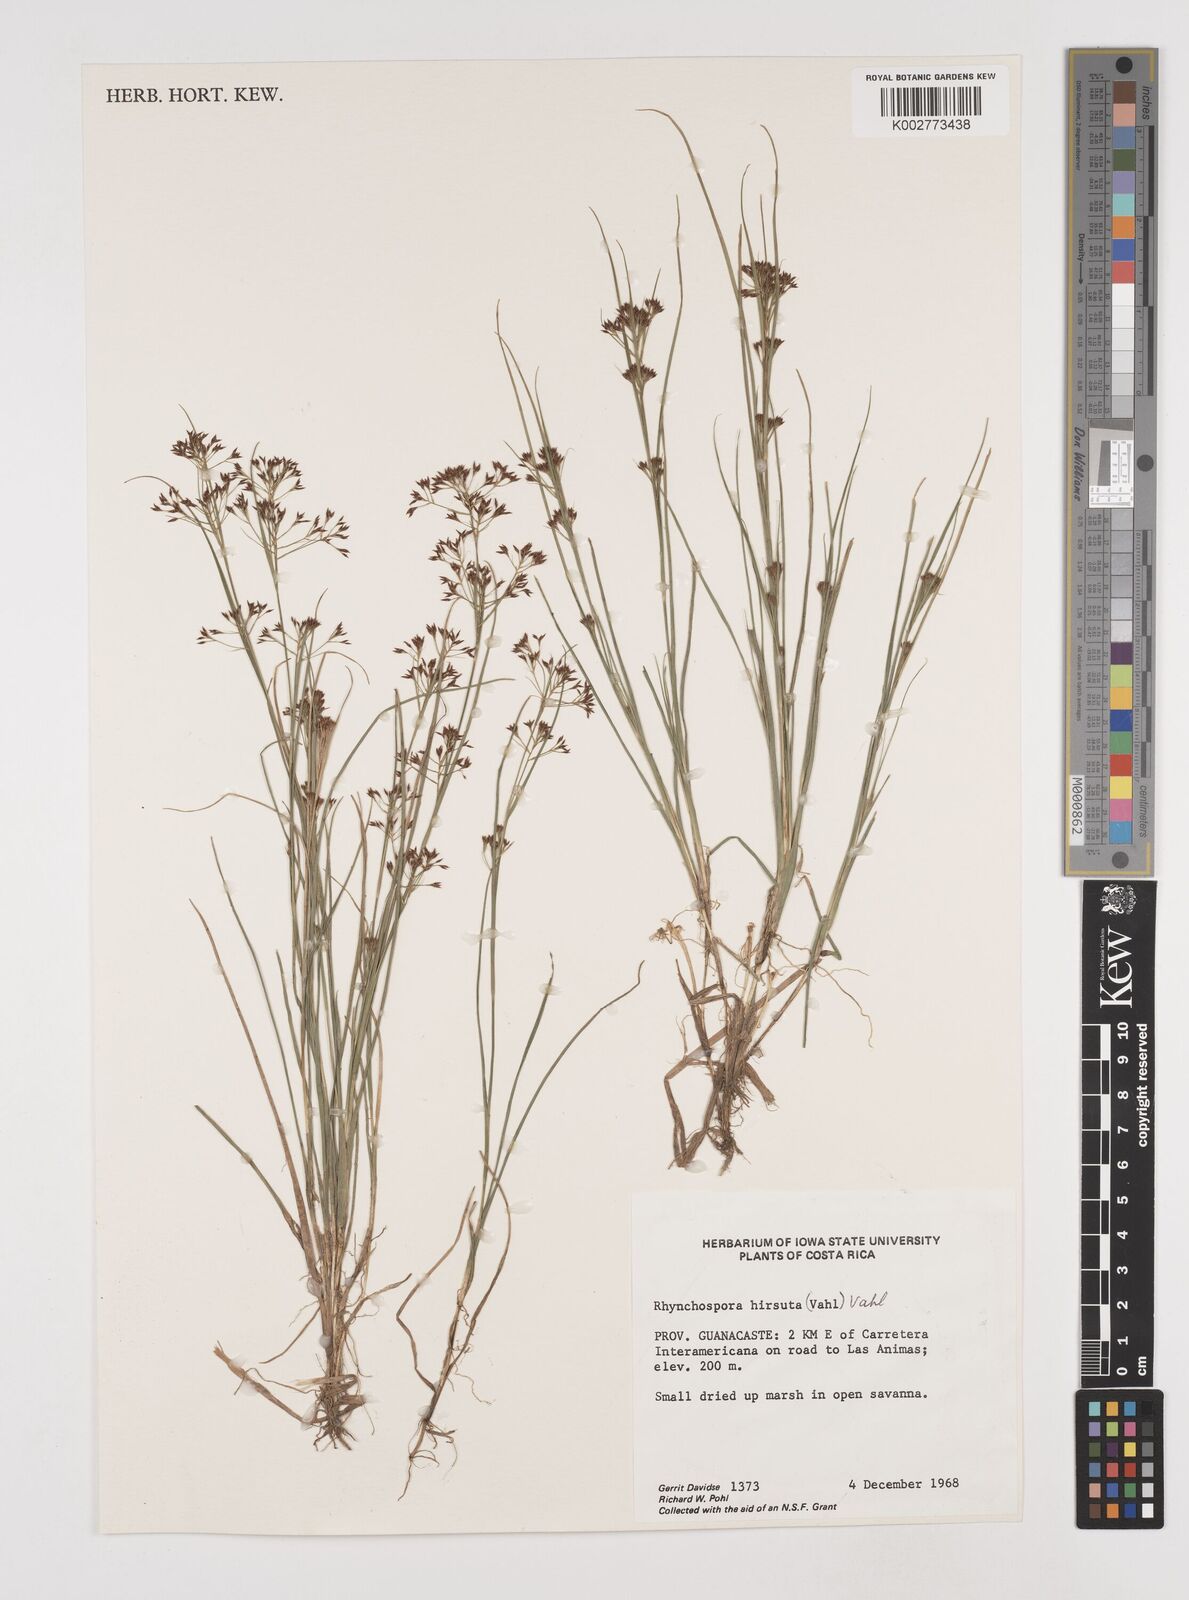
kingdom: Plantae
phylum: Tracheophyta
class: Liliopsida
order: Poales
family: Cyperaceae
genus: Rhynchospora
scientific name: Rhynchospora hirsuta
